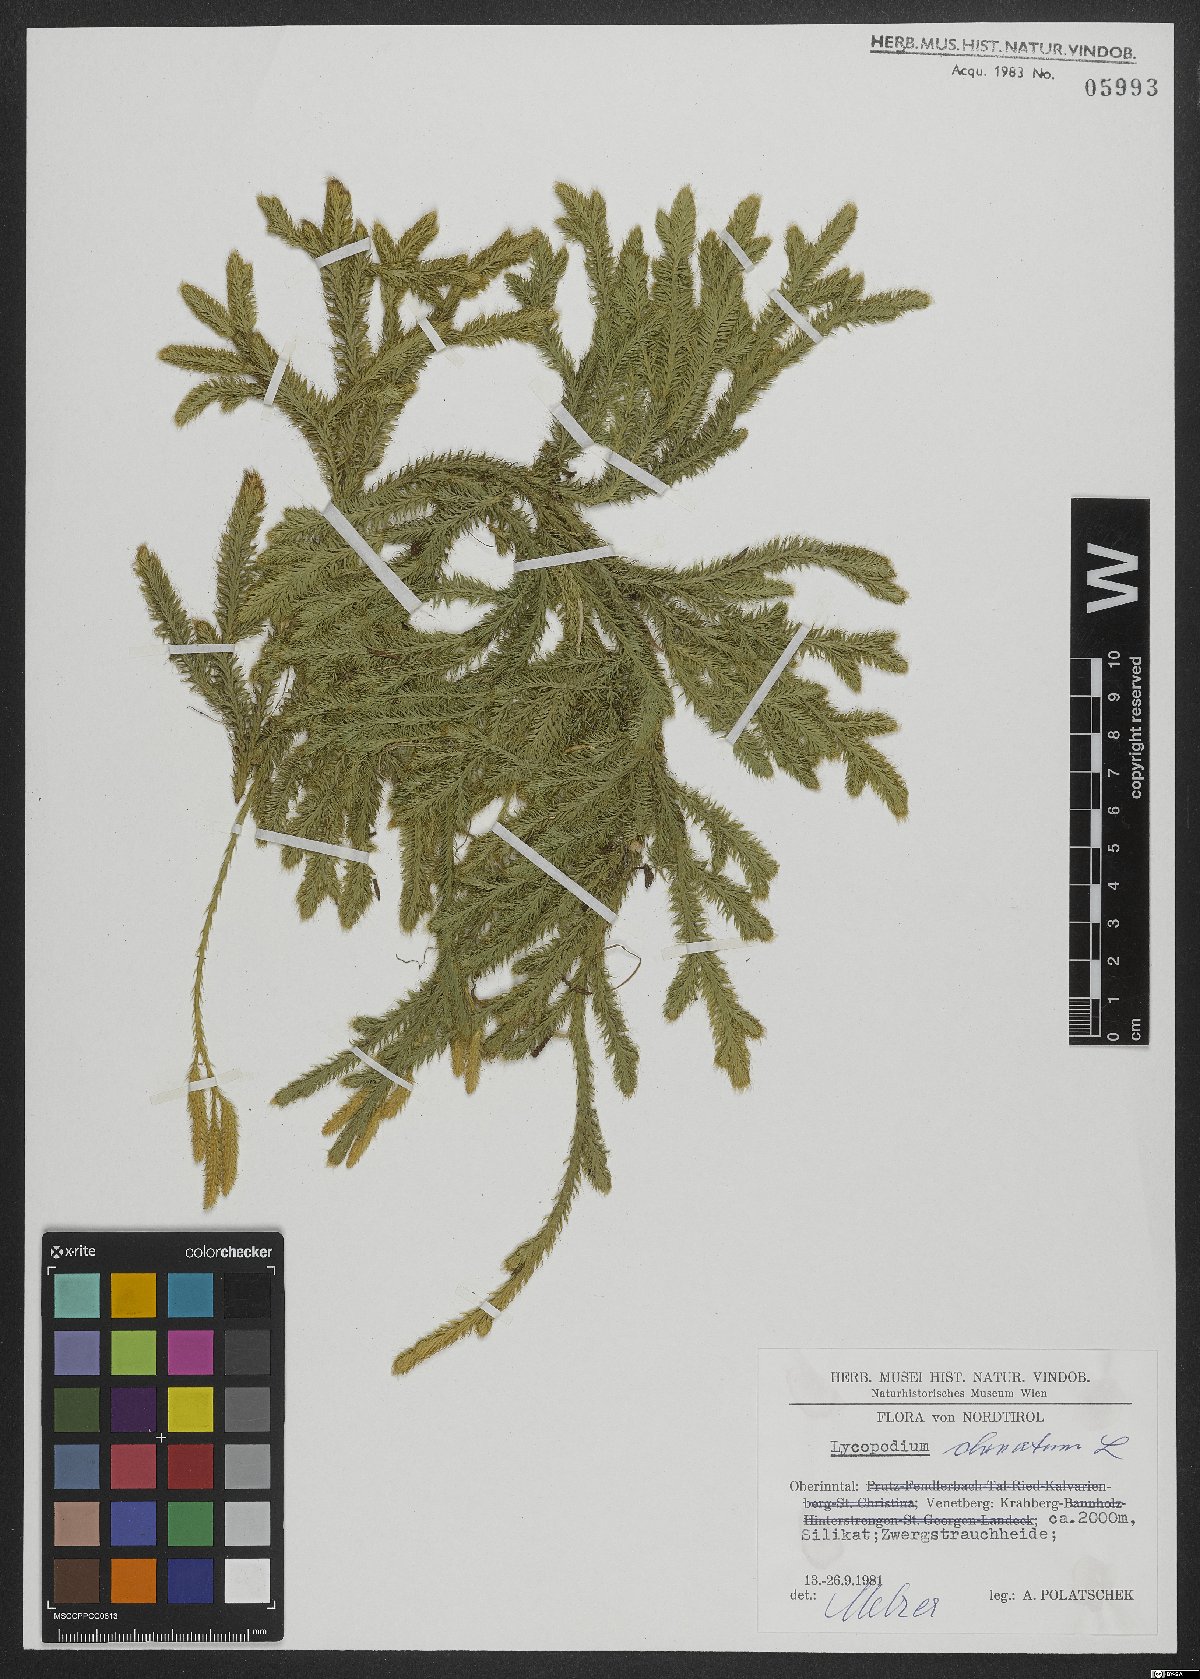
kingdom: Plantae
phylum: Tracheophyta
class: Lycopodiopsida
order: Lycopodiales
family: Lycopodiaceae
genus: Lycopodium
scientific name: Lycopodium clavatum
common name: Stag's-horn clubmoss
